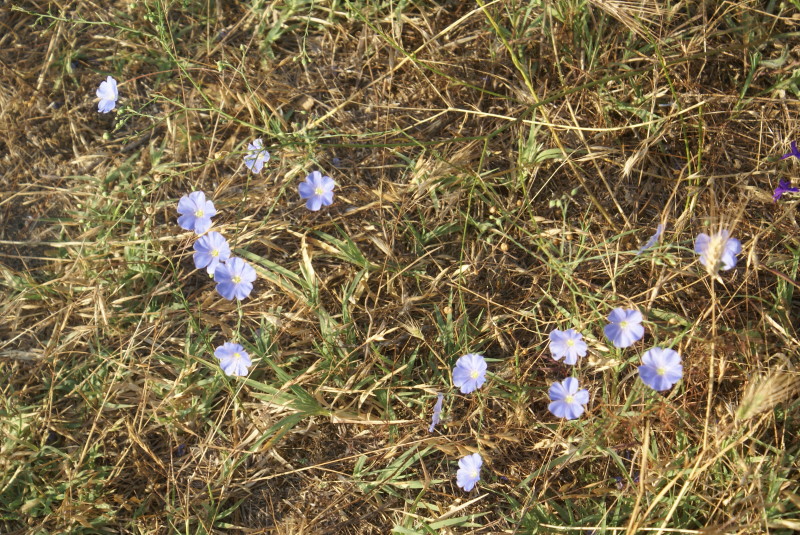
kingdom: Plantae
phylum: Tracheophyta
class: Magnoliopsida
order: Malpighiales
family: Linaceae
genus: Linum
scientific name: Linum usitatissimum
